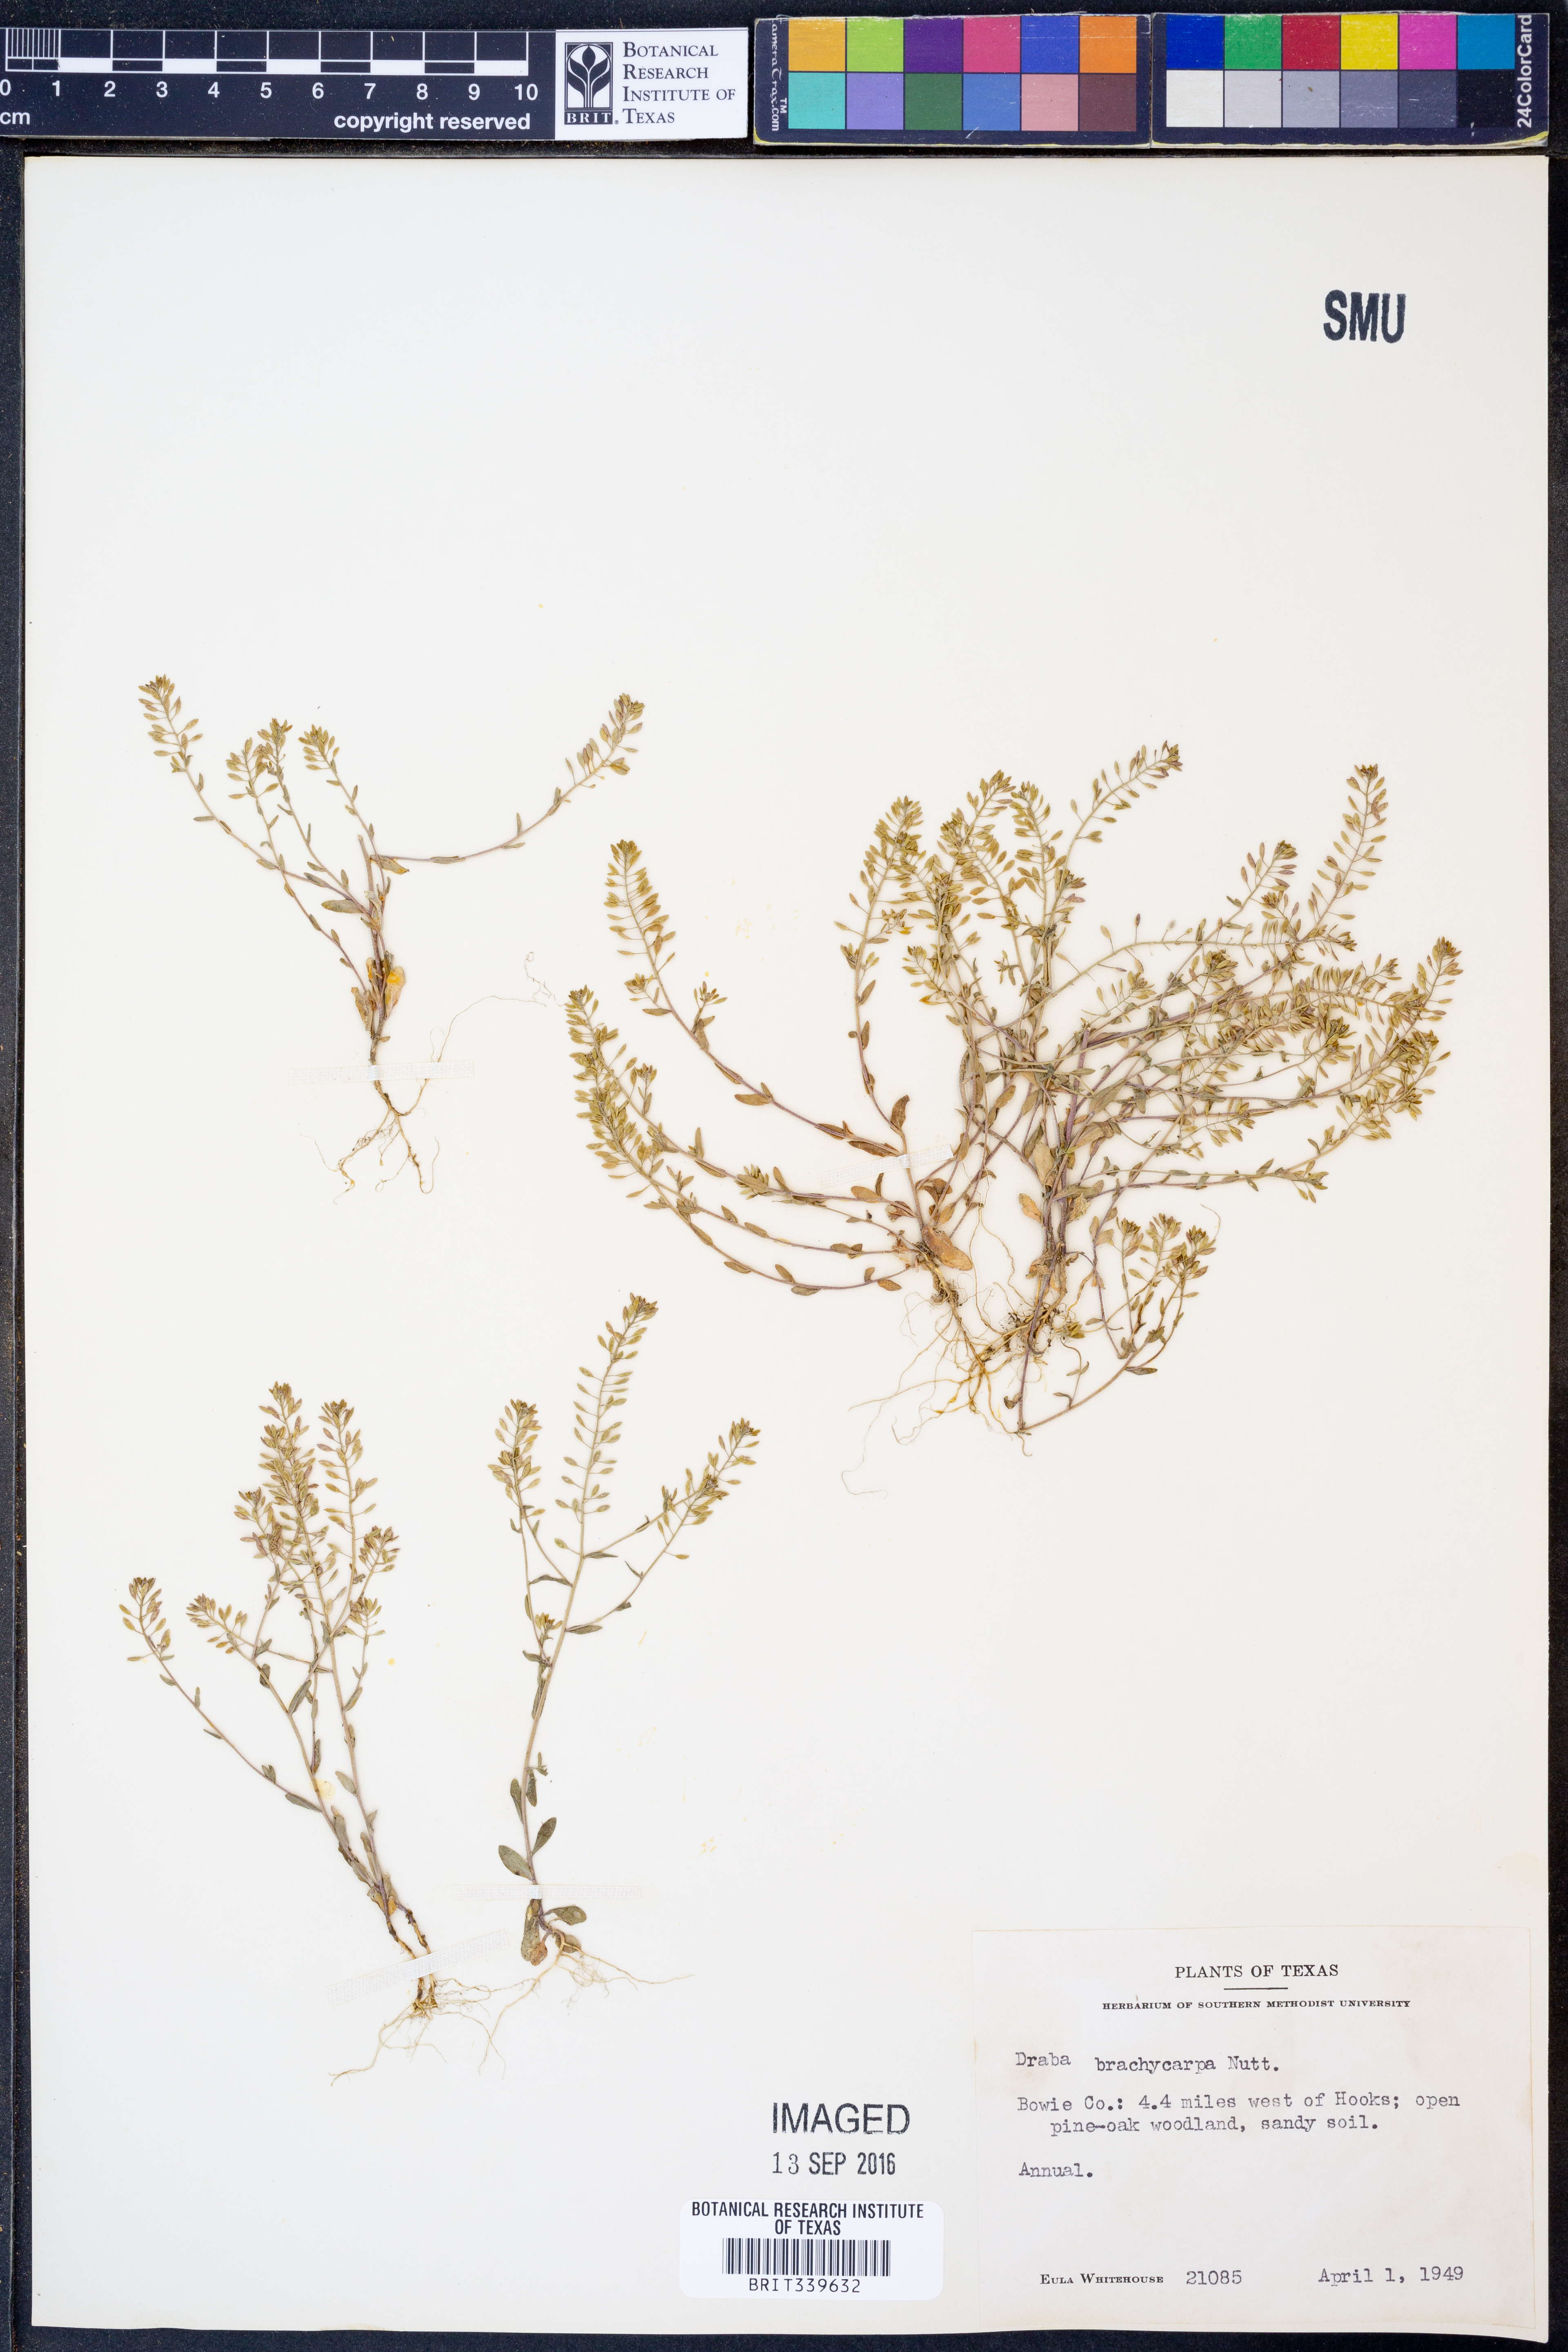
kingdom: Plantae
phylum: Tracheophyta
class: Magnoliopsida
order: Brassicales
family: Brassicaceae
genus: Abdra
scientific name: Abdra brachycarpa
